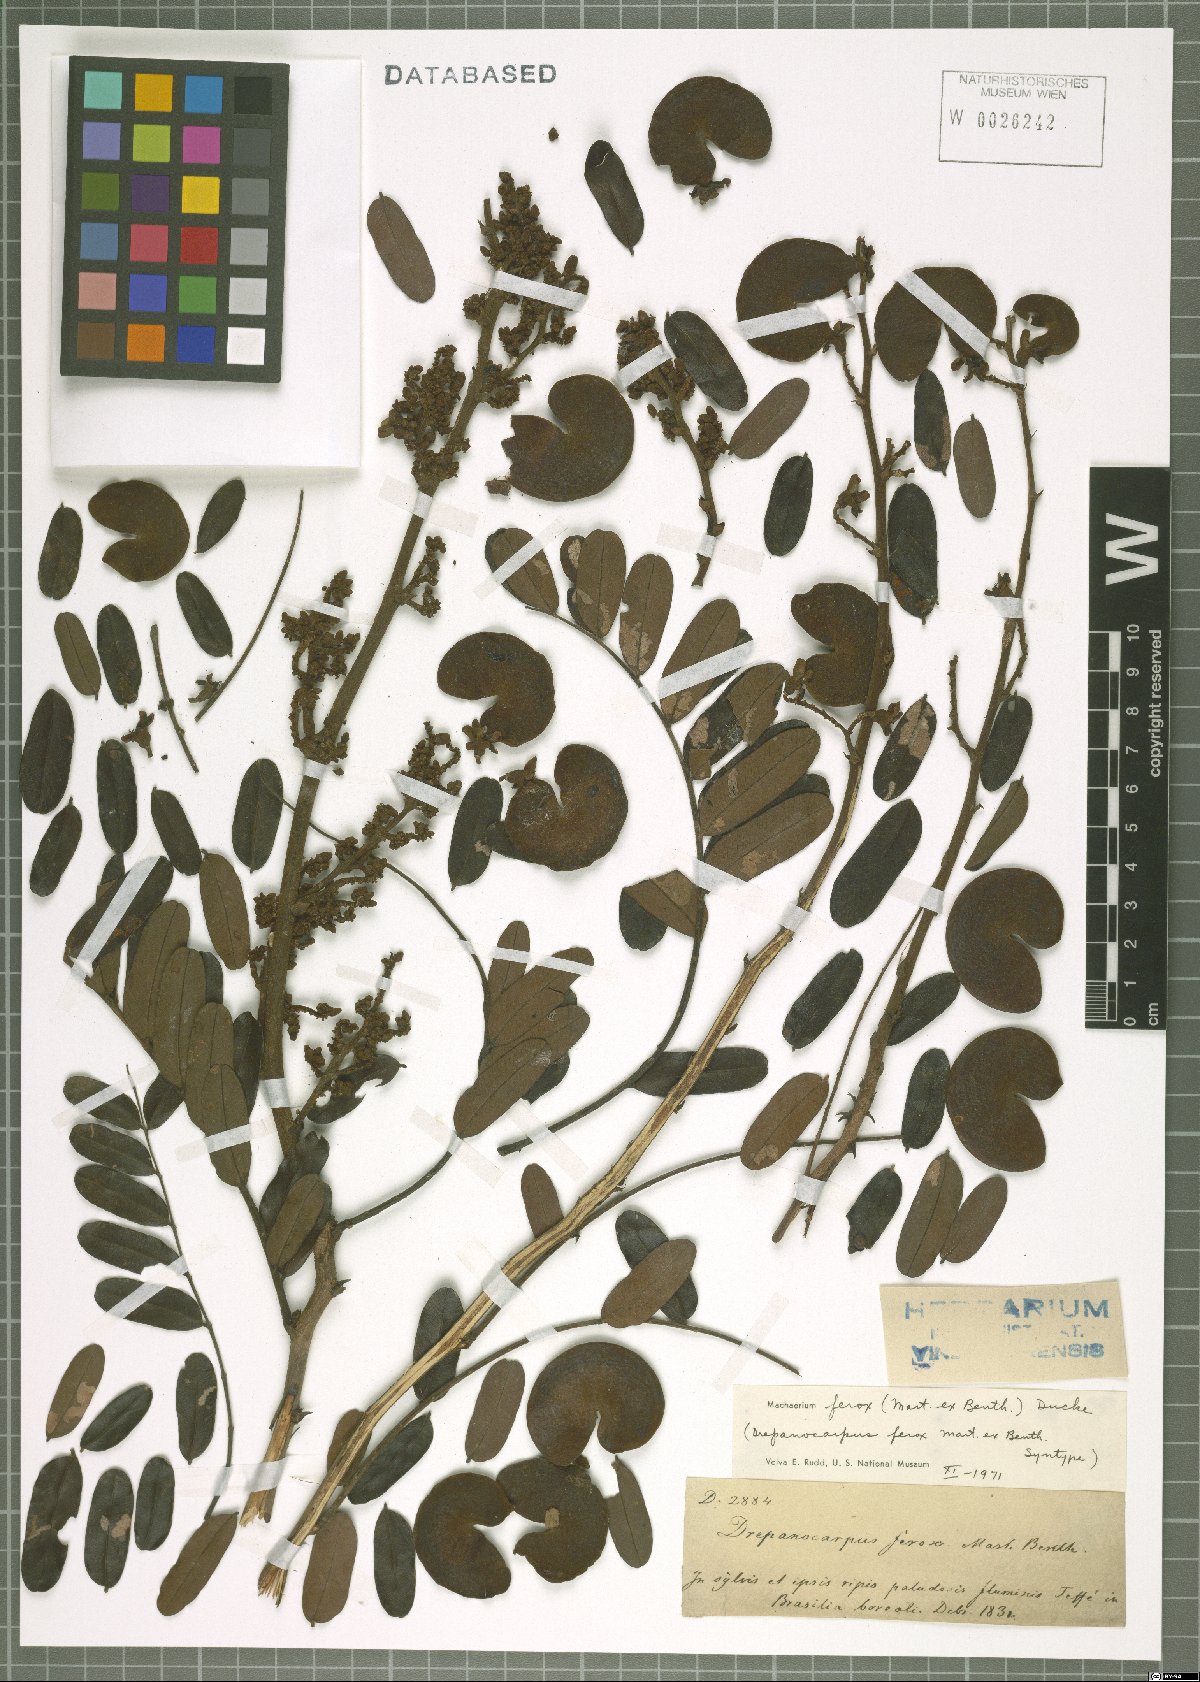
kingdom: Plantae
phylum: Tracheophyta
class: Magnoliopsida
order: Fabales
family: Fabaceae
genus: Machaerium
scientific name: Machaerium ferox
